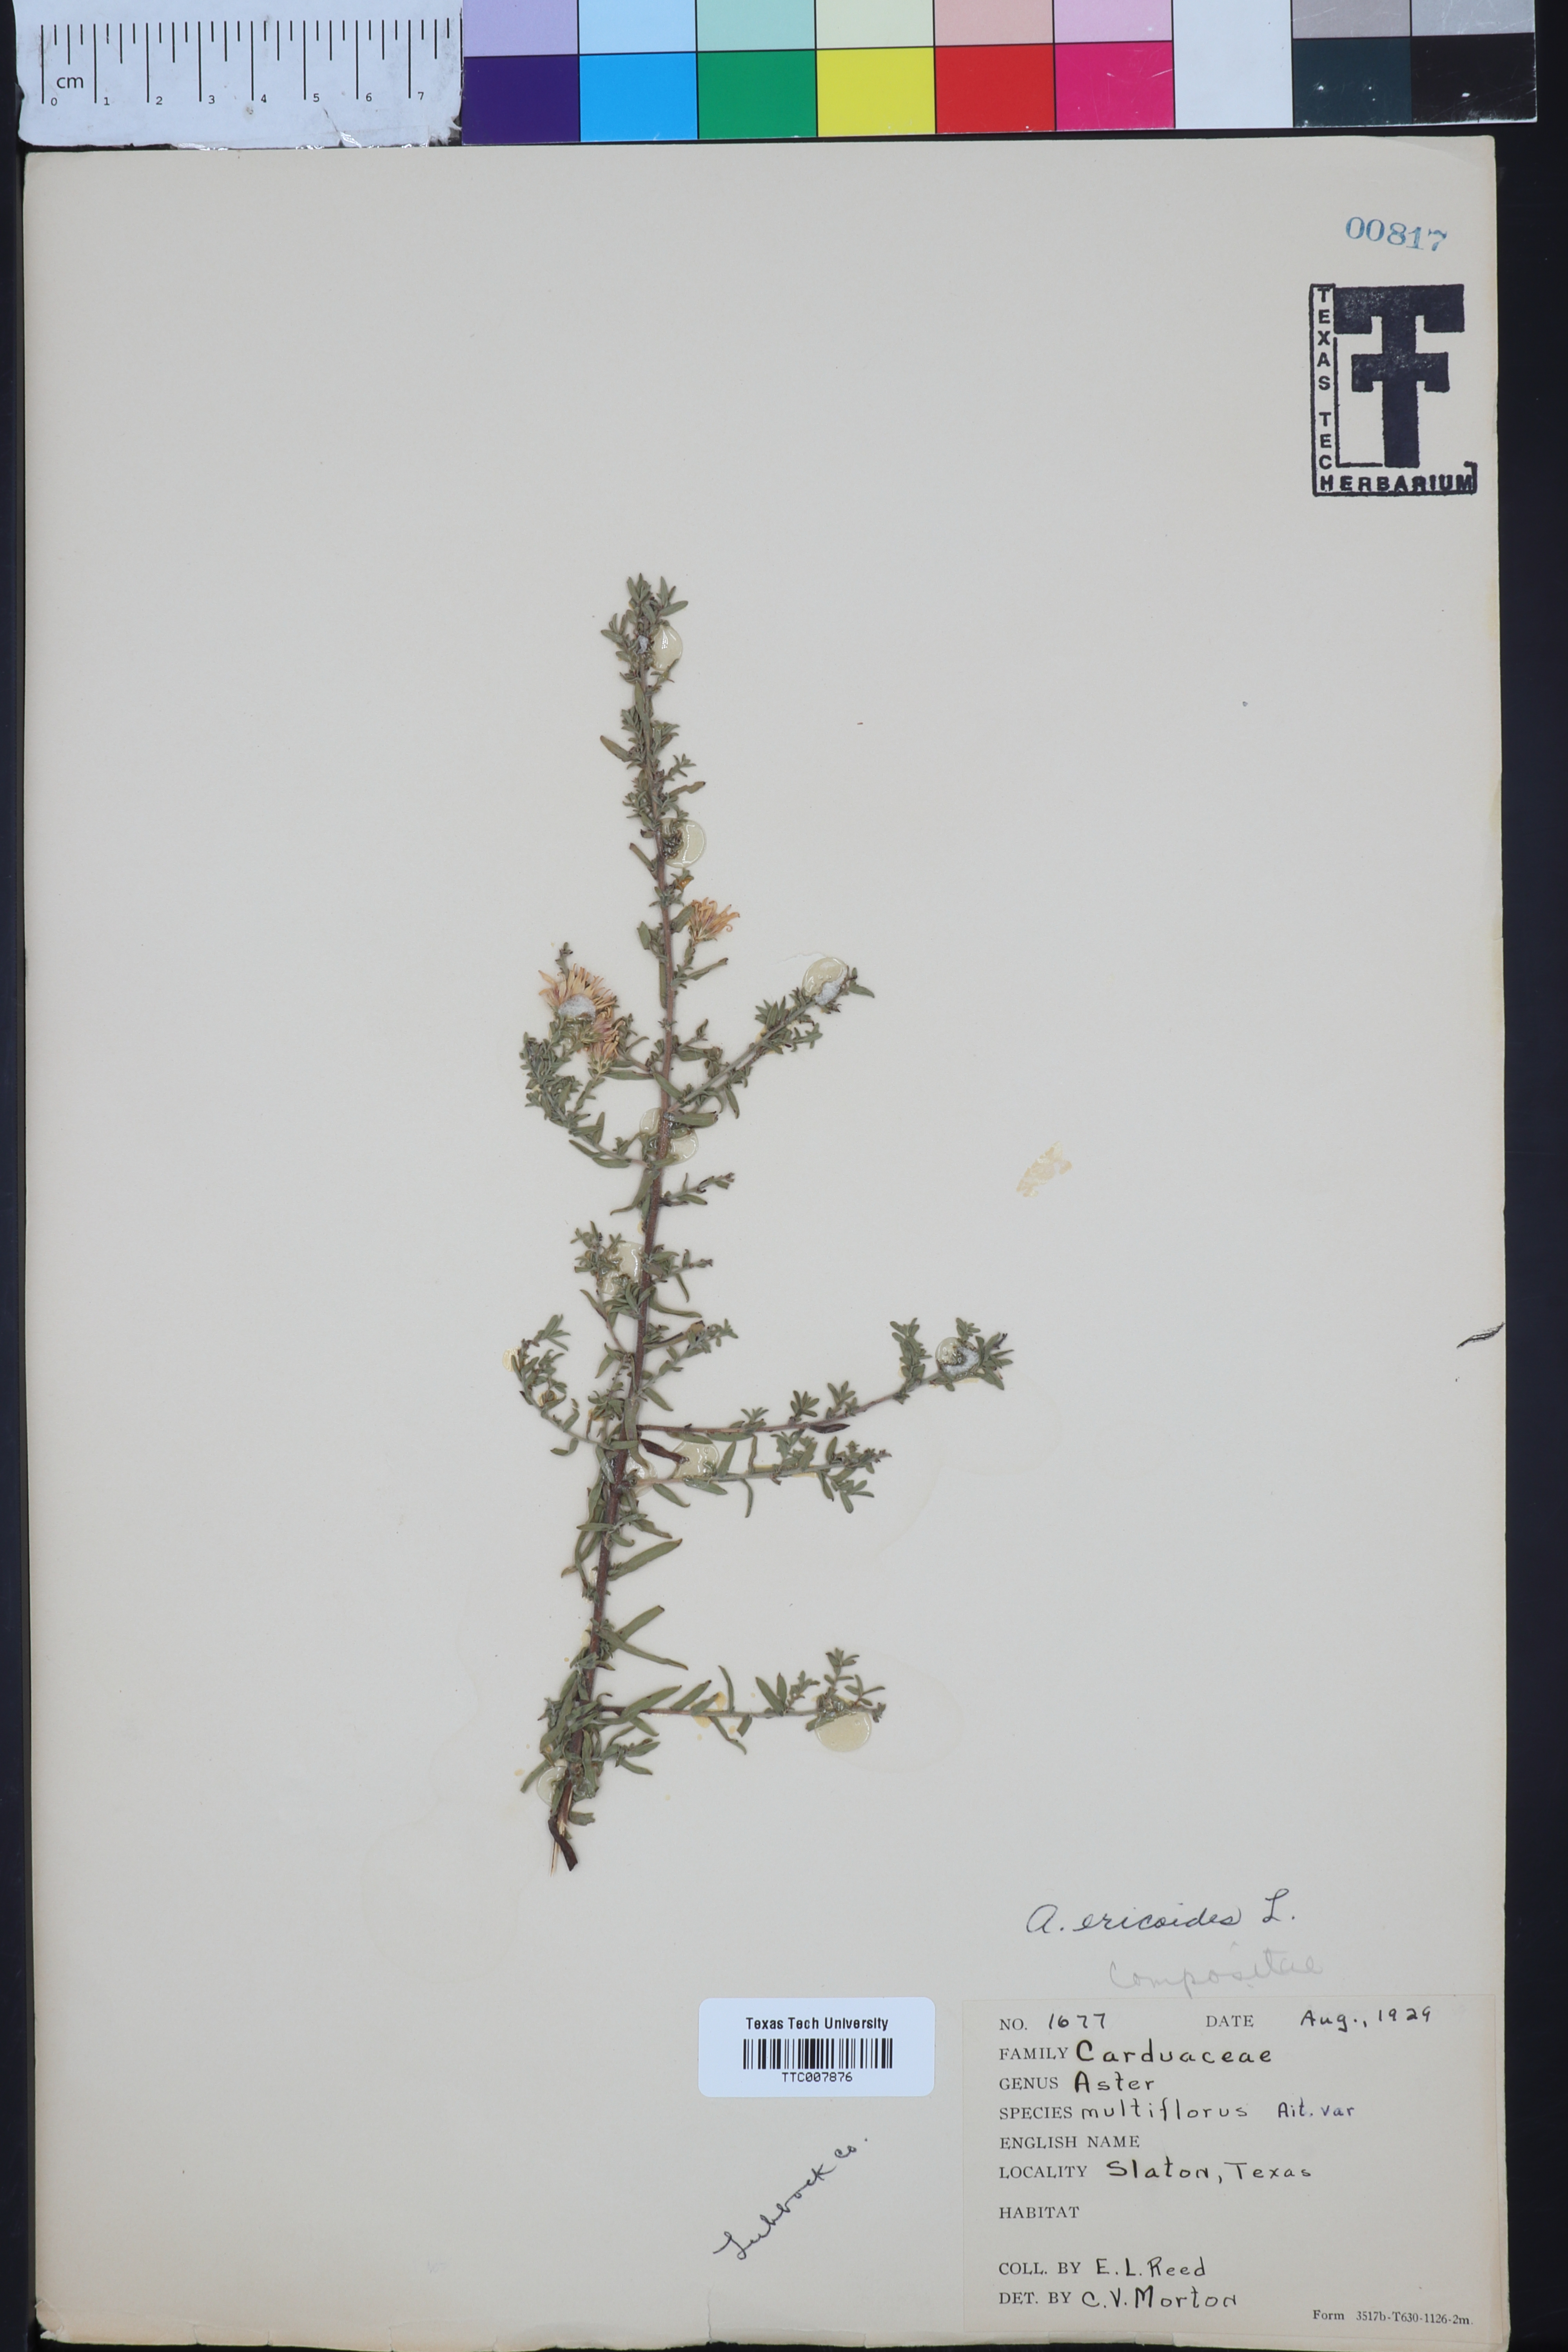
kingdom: Plantae
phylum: Tracheophyta
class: Magnoliopsida
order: Asterales
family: Asteraceae
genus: Symphyotrichum
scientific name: Symphyotrichum ericoides
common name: Heath aster
